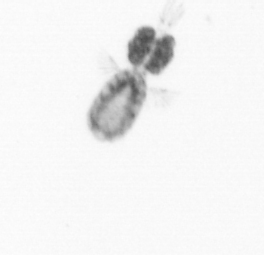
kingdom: Animalia
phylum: Arthropoda
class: Copepoda
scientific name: Copepoda
